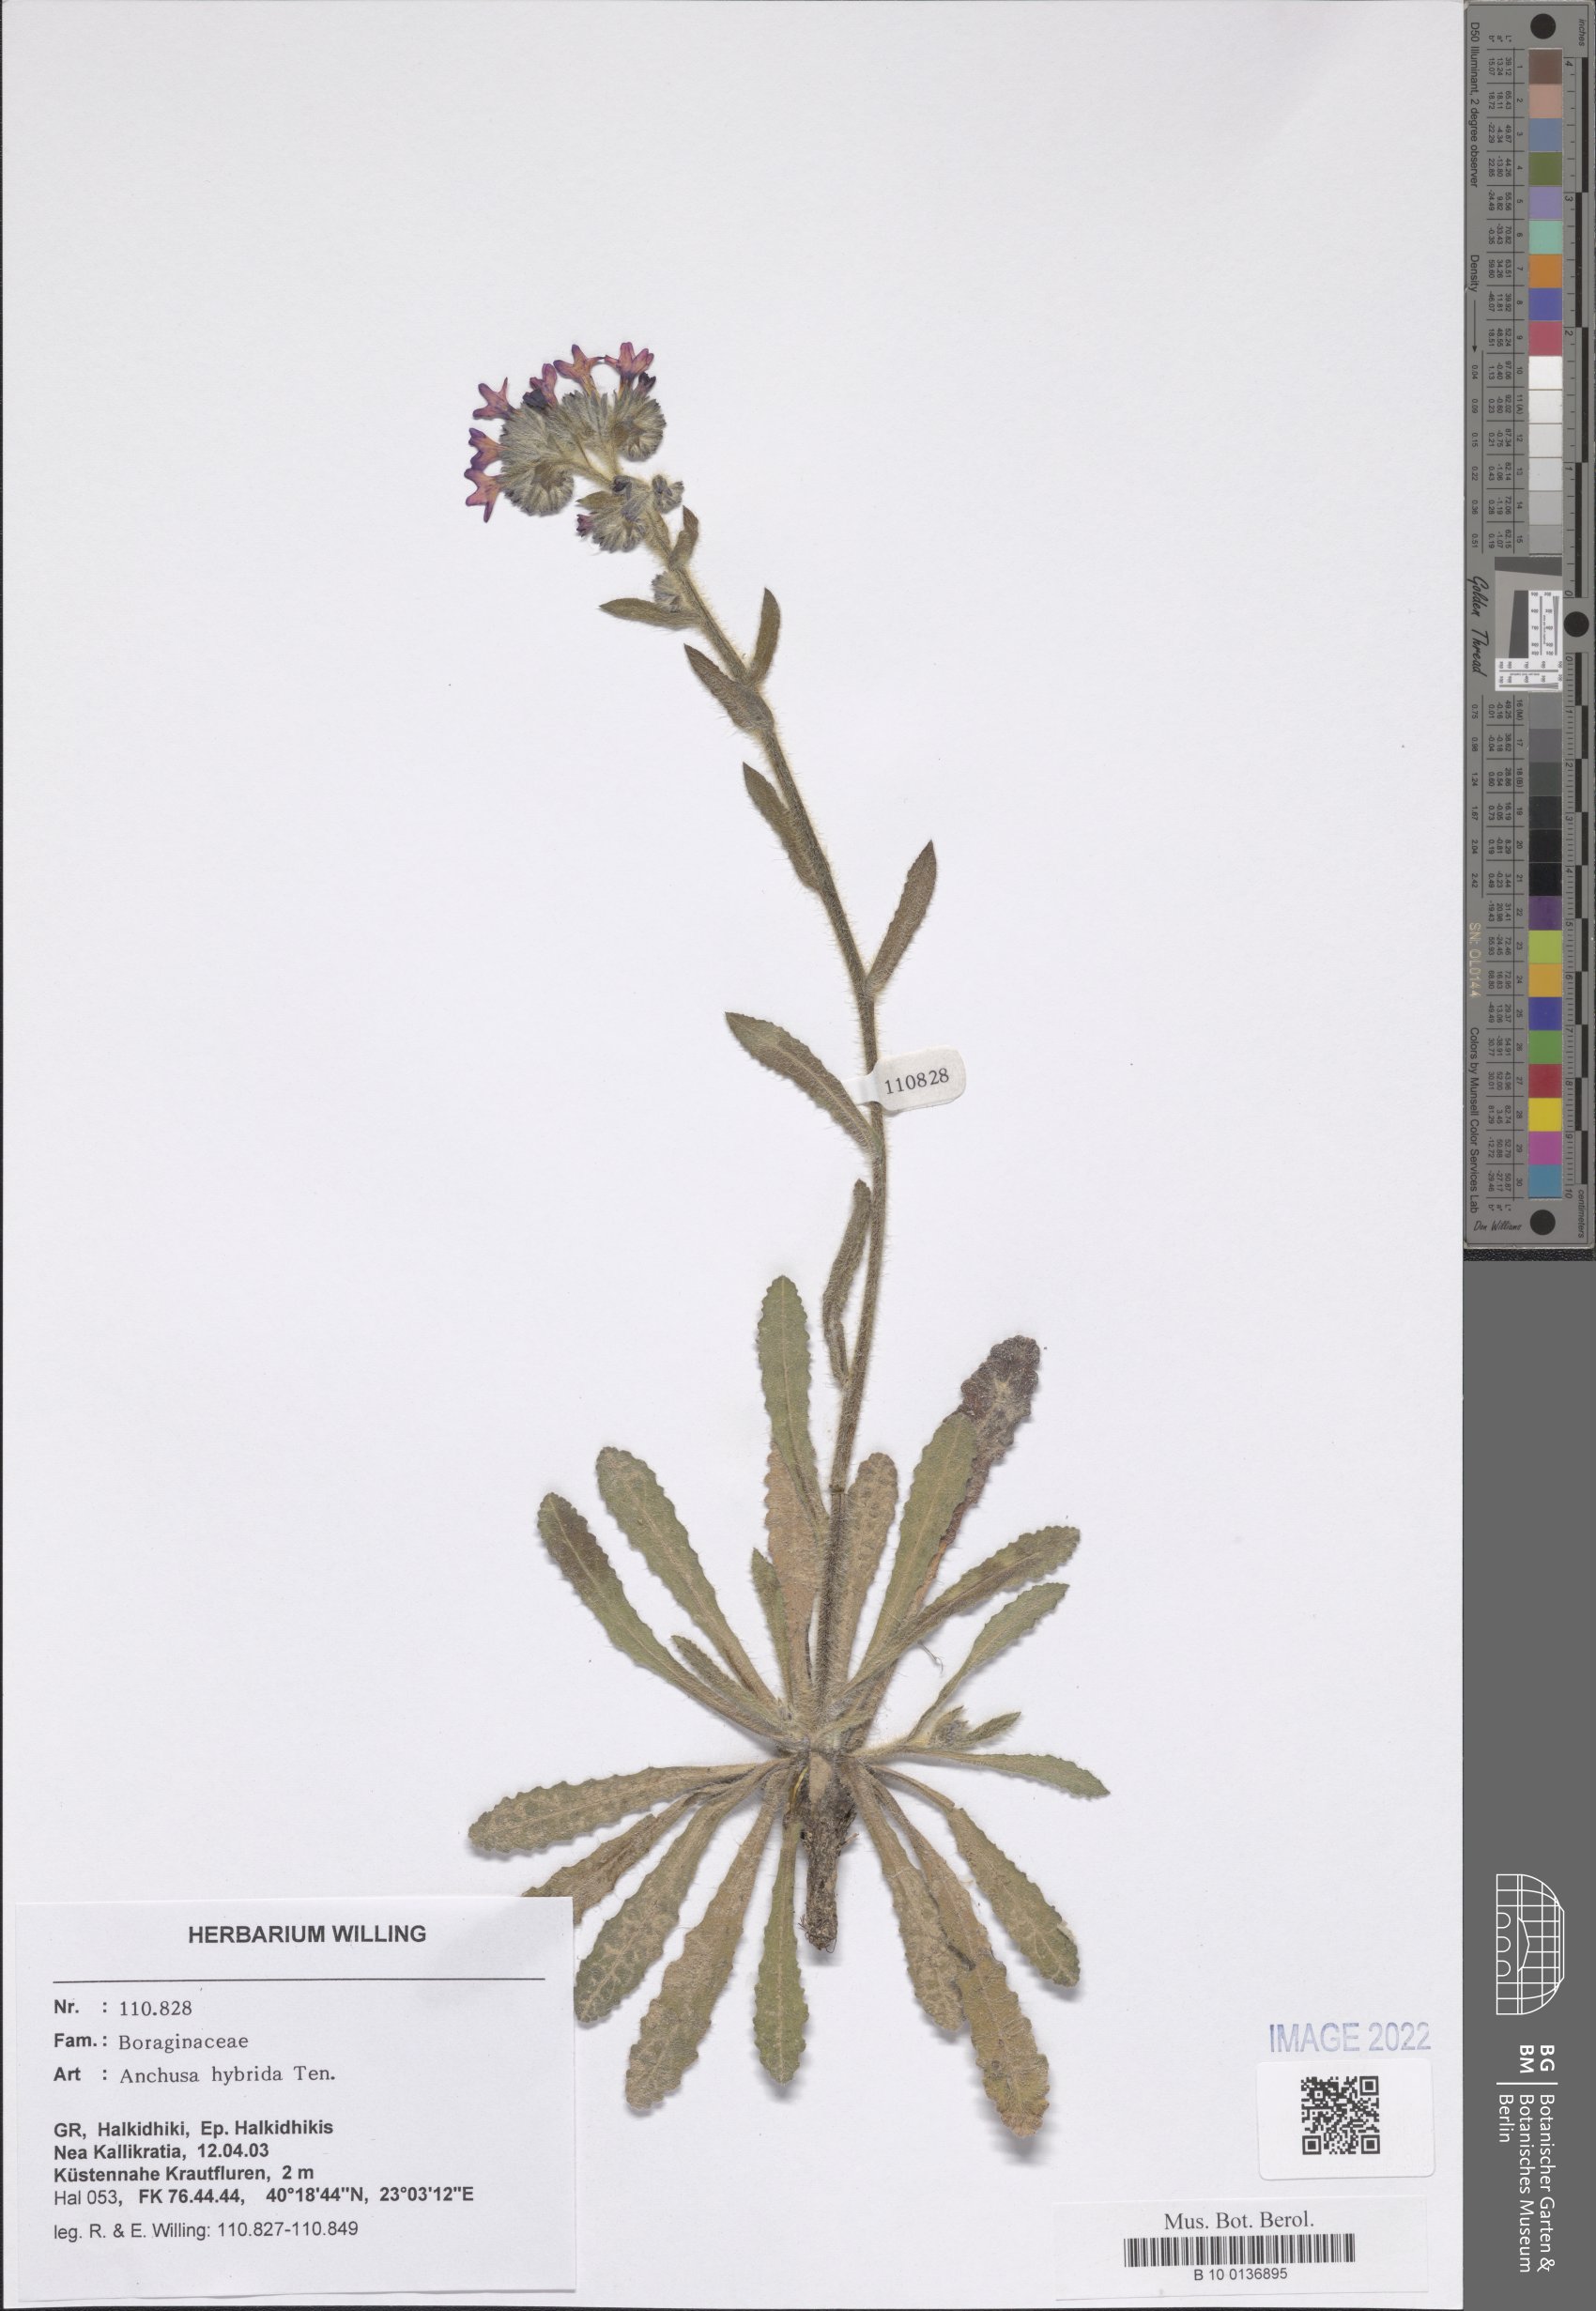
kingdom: Plantae
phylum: Tracheophyta
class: Magnoliopsida
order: Boraginales
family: Boraginaceae
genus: Anchusa
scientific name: Anchusa hybrida
